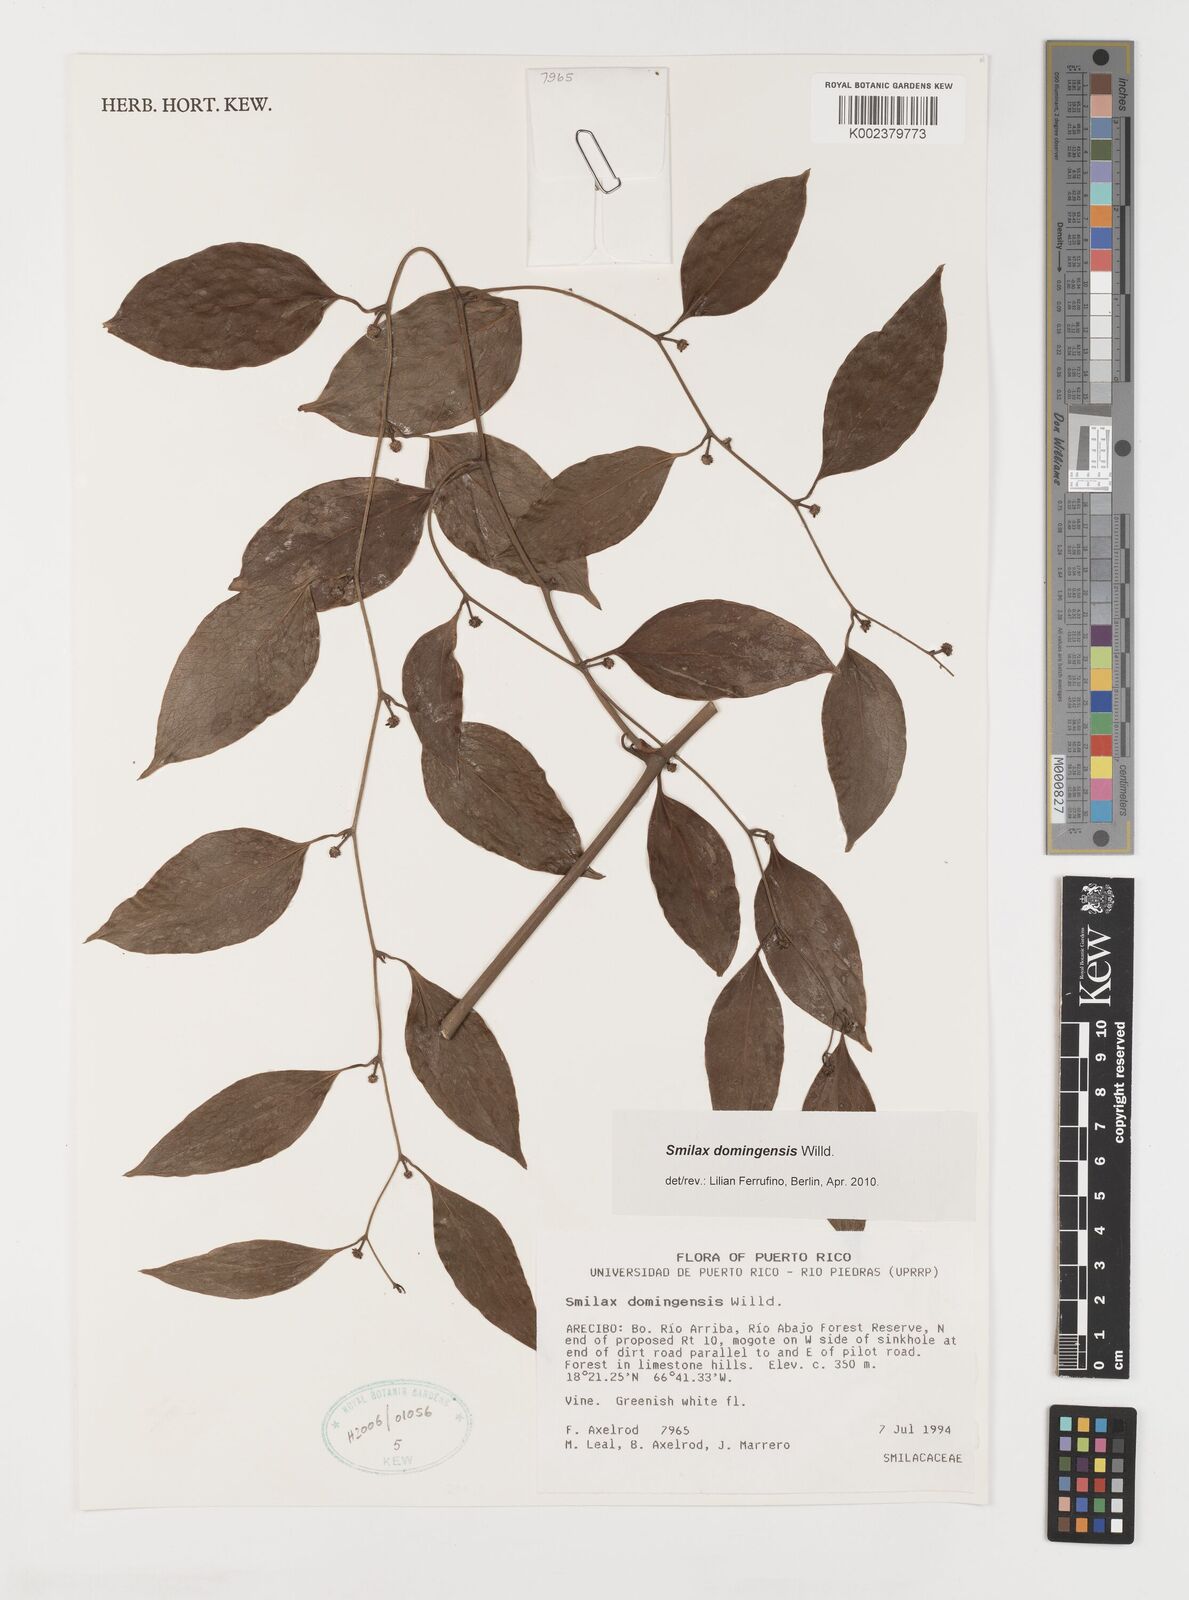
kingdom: Plantae
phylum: Tracheophyta
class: Liliopsida
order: Liliales
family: Smilacaceae
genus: Smilax
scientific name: Smilax domingensis
